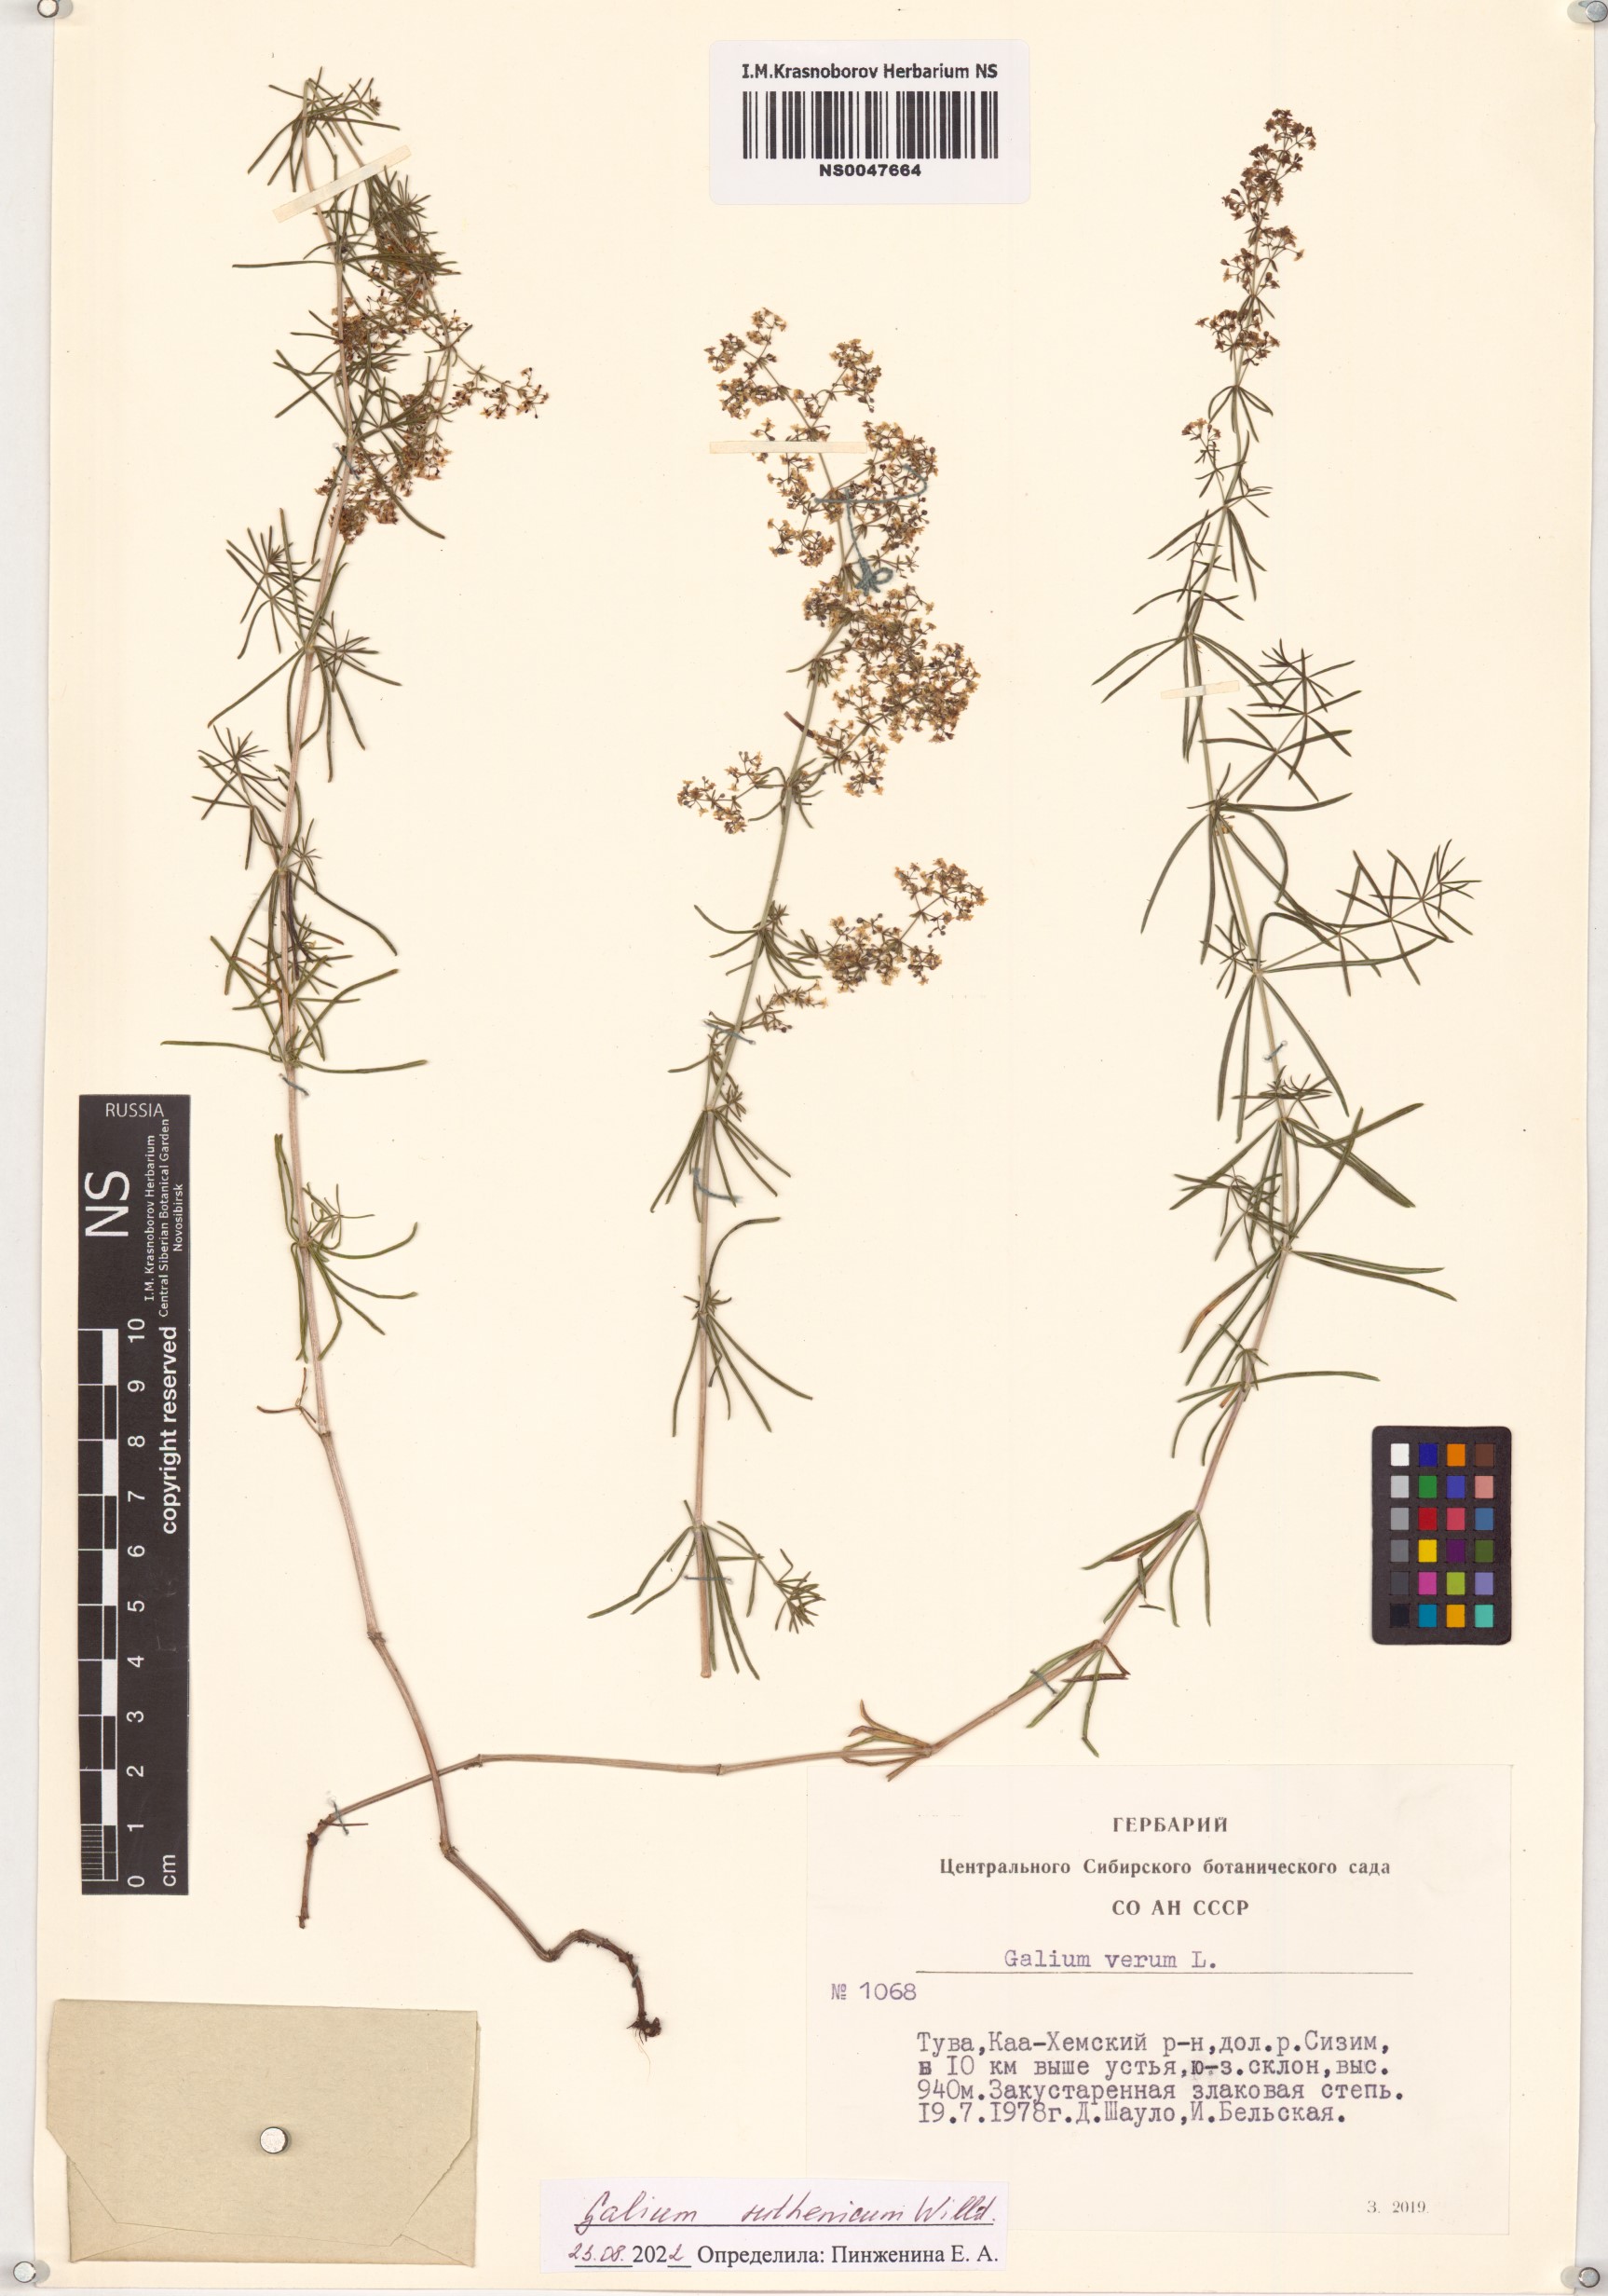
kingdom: Plantae
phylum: Tracheophyta
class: Magnoliopsida
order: Gentianales
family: Rubiaceae
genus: Galium
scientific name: Galium verum
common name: Lady's bedstraw
